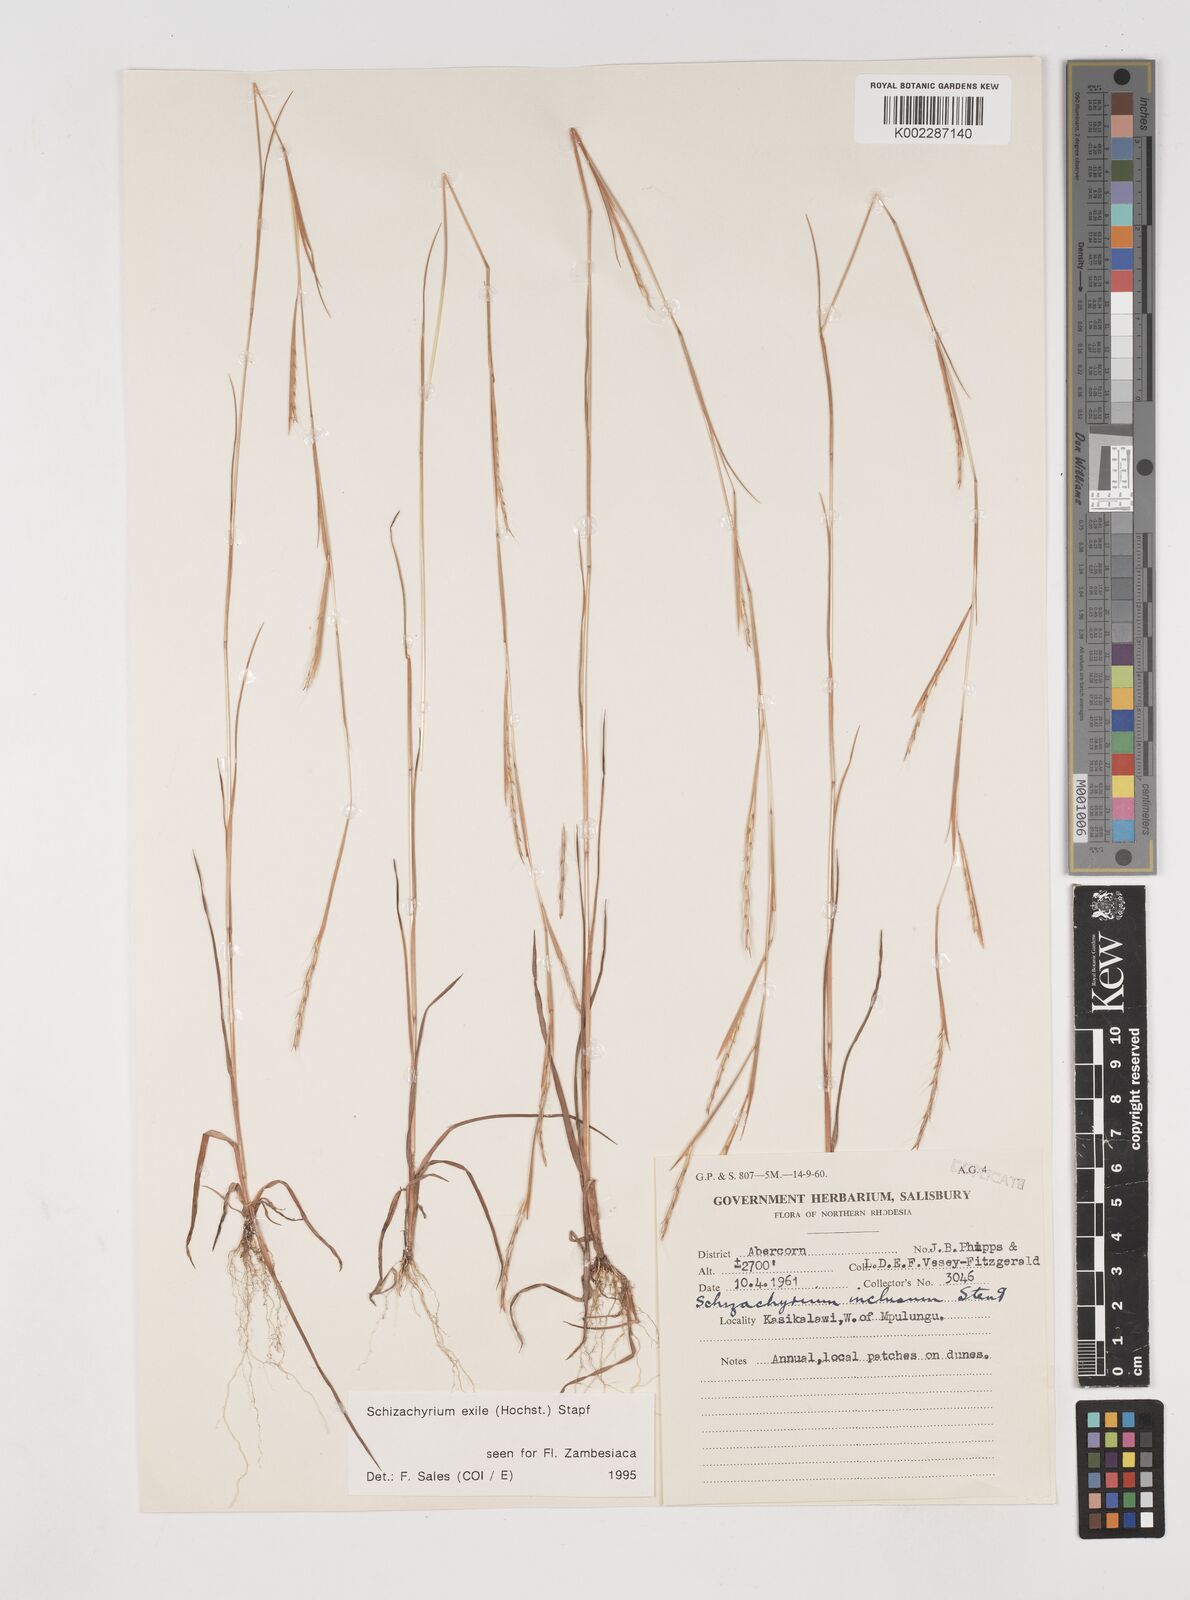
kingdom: Plantae
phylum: Tracheophyta
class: Liliopsida
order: Poales
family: Poaceae
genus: Schizachyrium
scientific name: Schizachyrium exile
